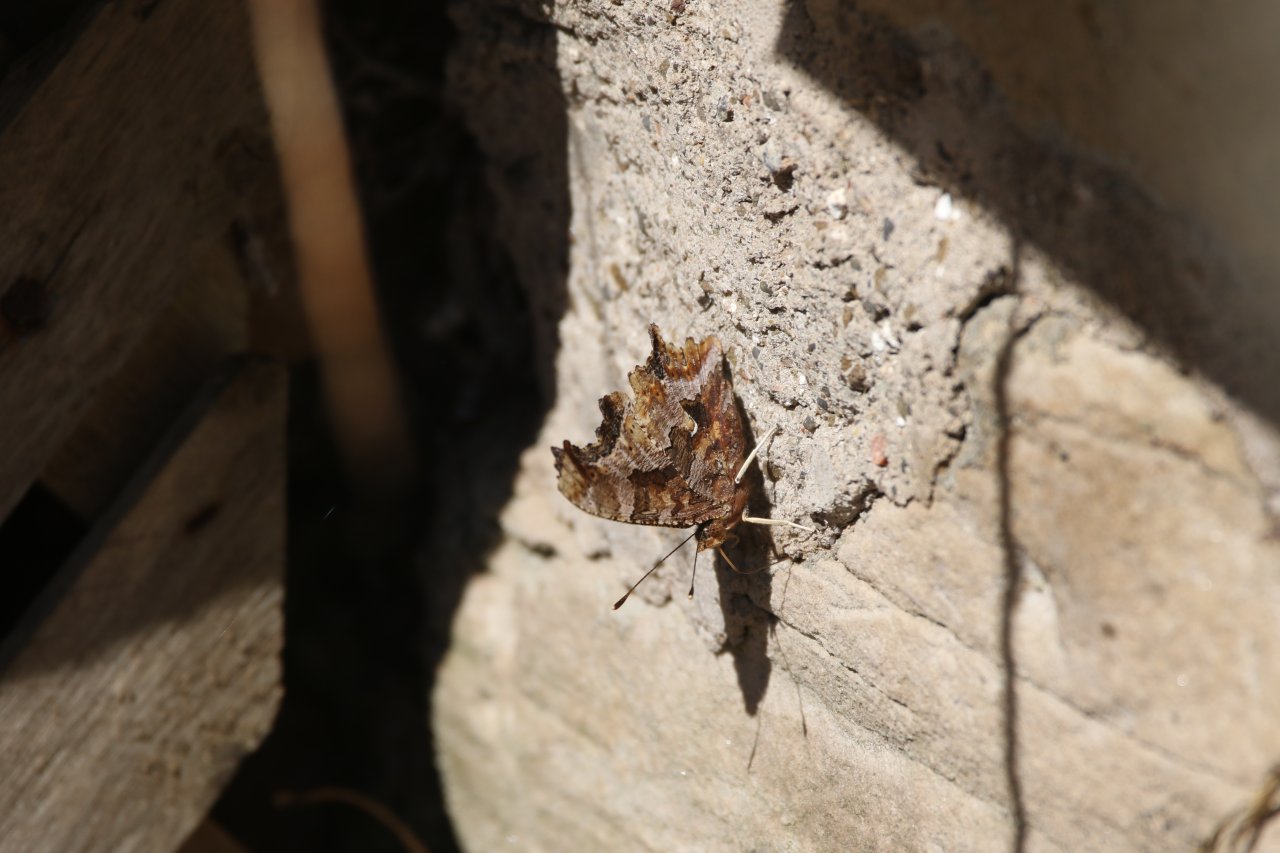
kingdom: Animalia
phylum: Arthropoda
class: Insecta
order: Lepidoptera
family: Nymphalidae
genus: Polygonia
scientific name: Polygonia comma
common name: Eastern Comma
